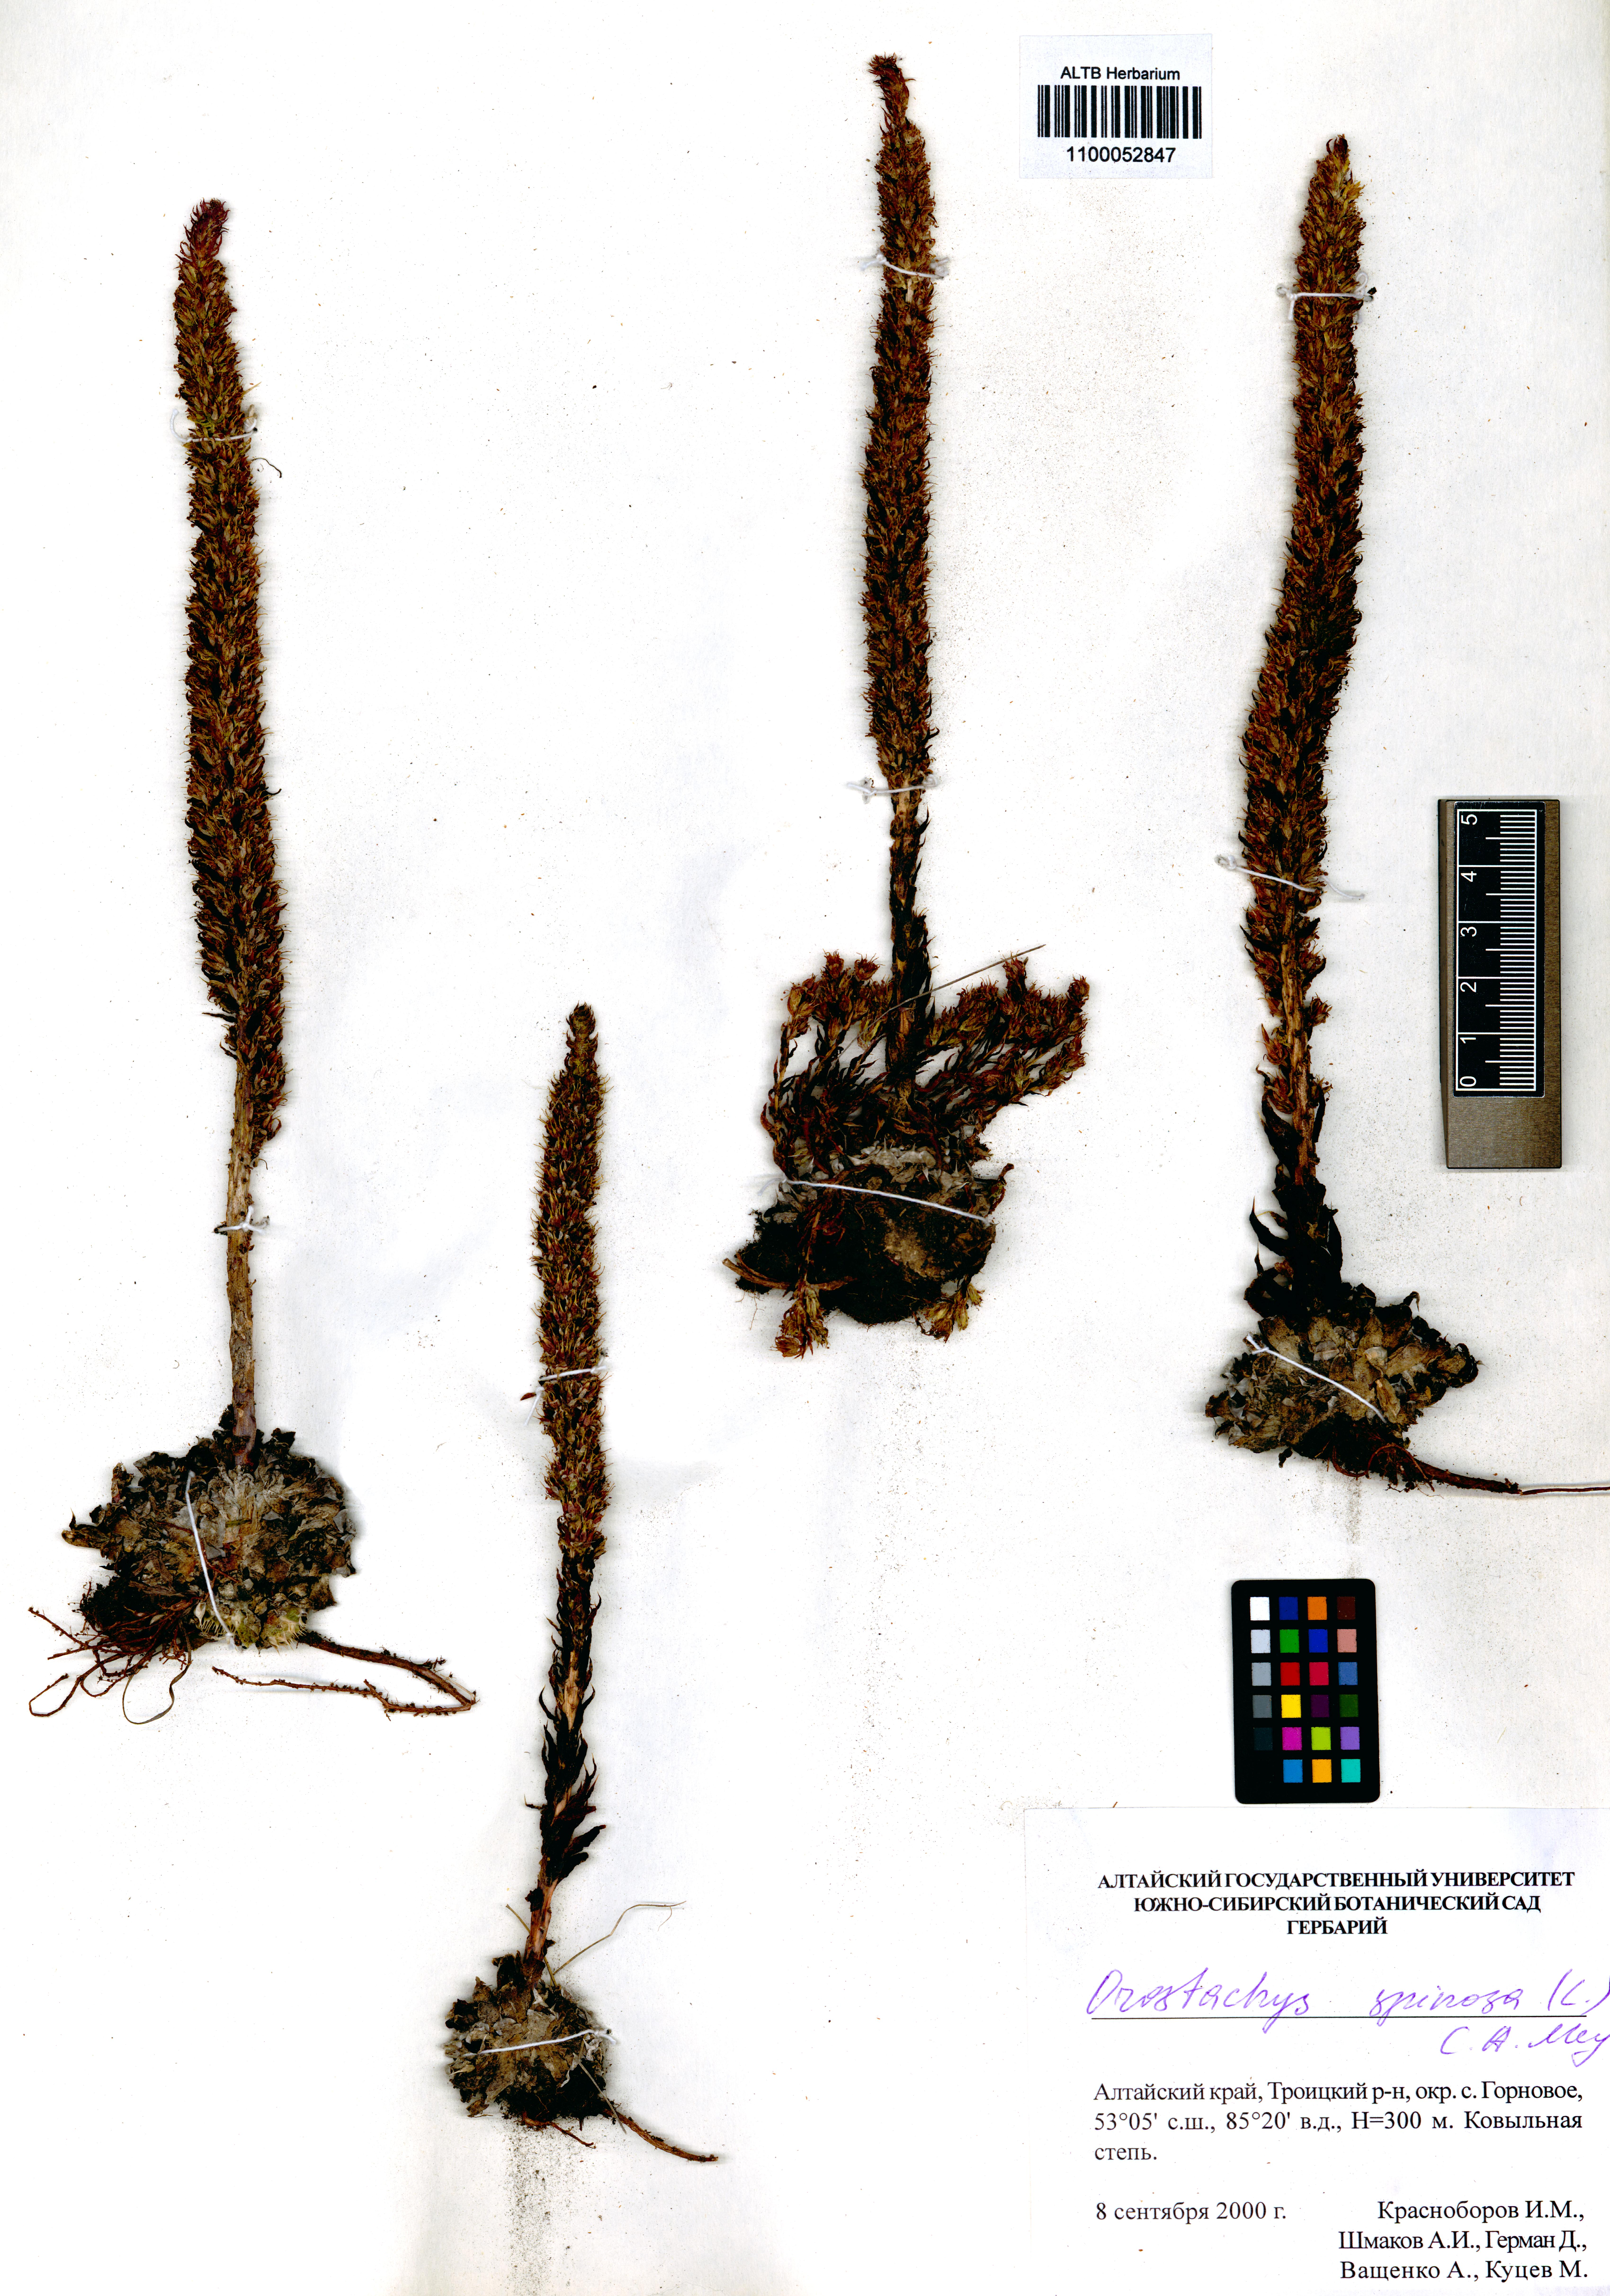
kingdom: Plantae
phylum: Tracheophyta
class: Magnoliopsida
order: Saxifragales
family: Crassulaceae
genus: Orostachys
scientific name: Orostachys spinosa
